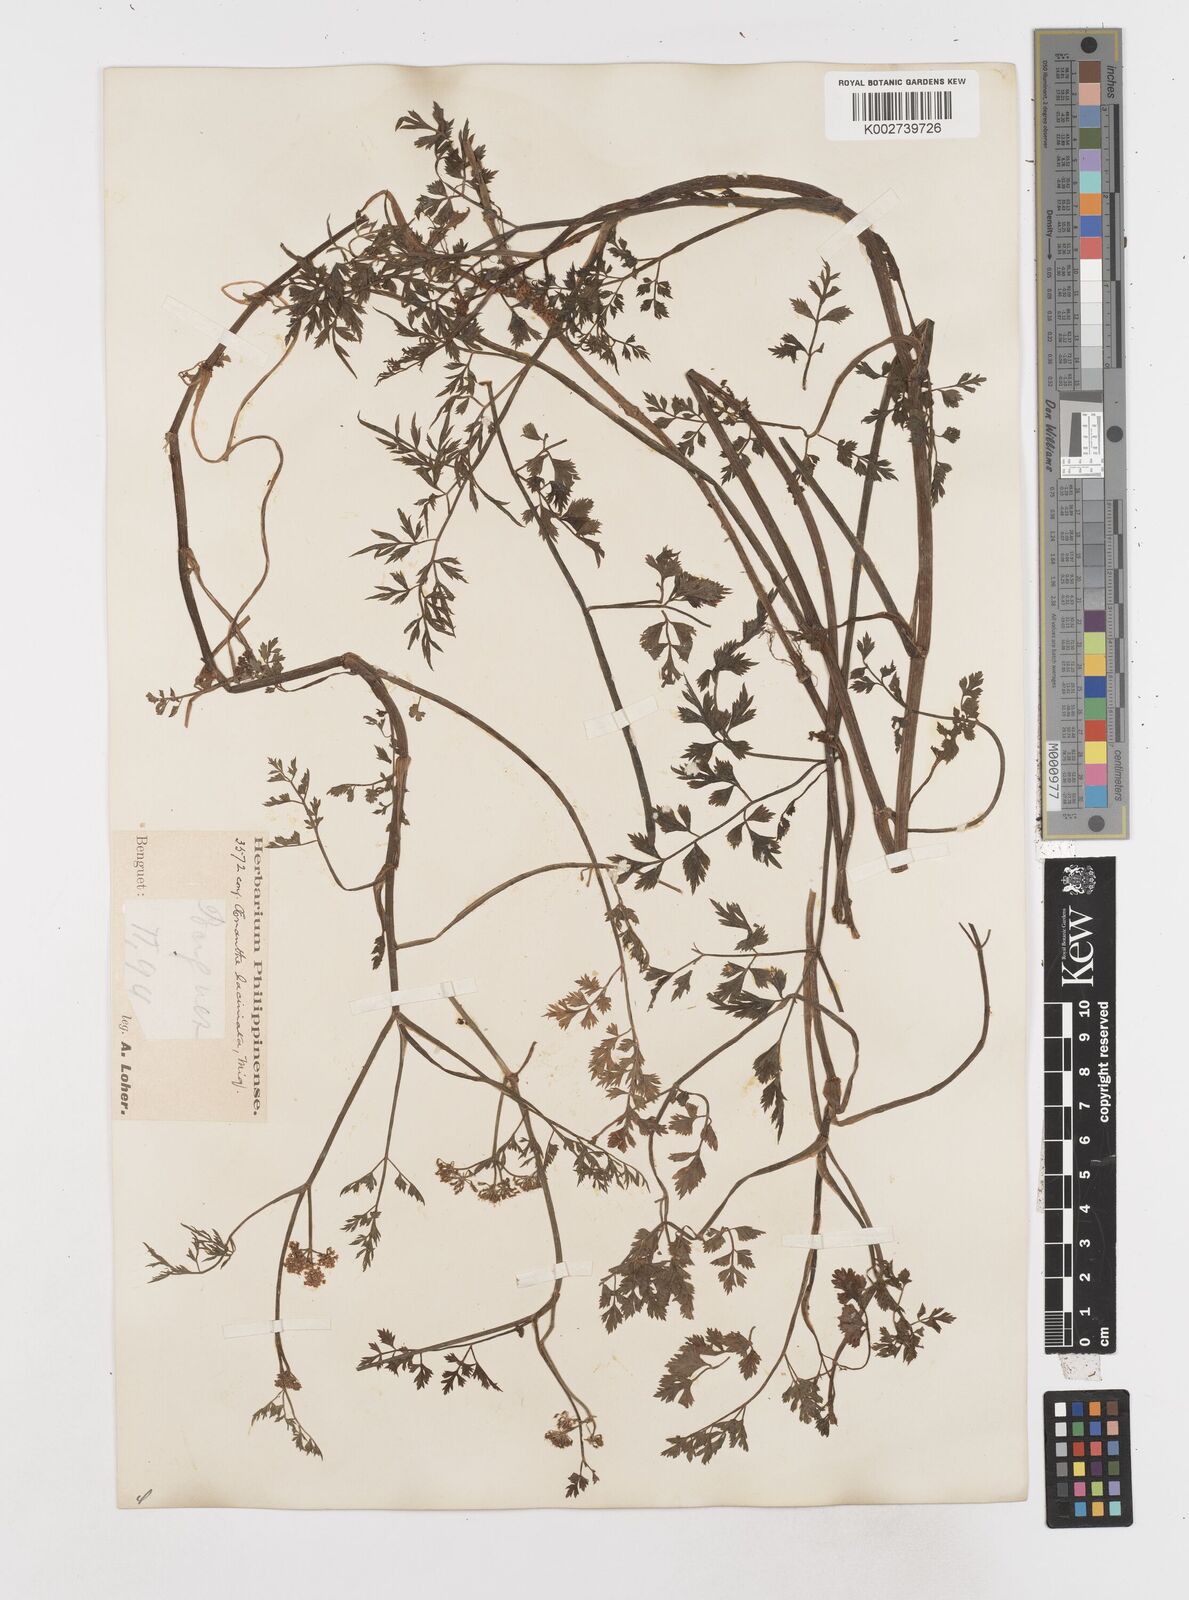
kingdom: Plantae
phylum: Tracheophyta
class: Magnoliopsida
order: Apiales
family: Apiaceae
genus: Oenanthe
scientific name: Oenanthe javanica
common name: Java water-dropwort
